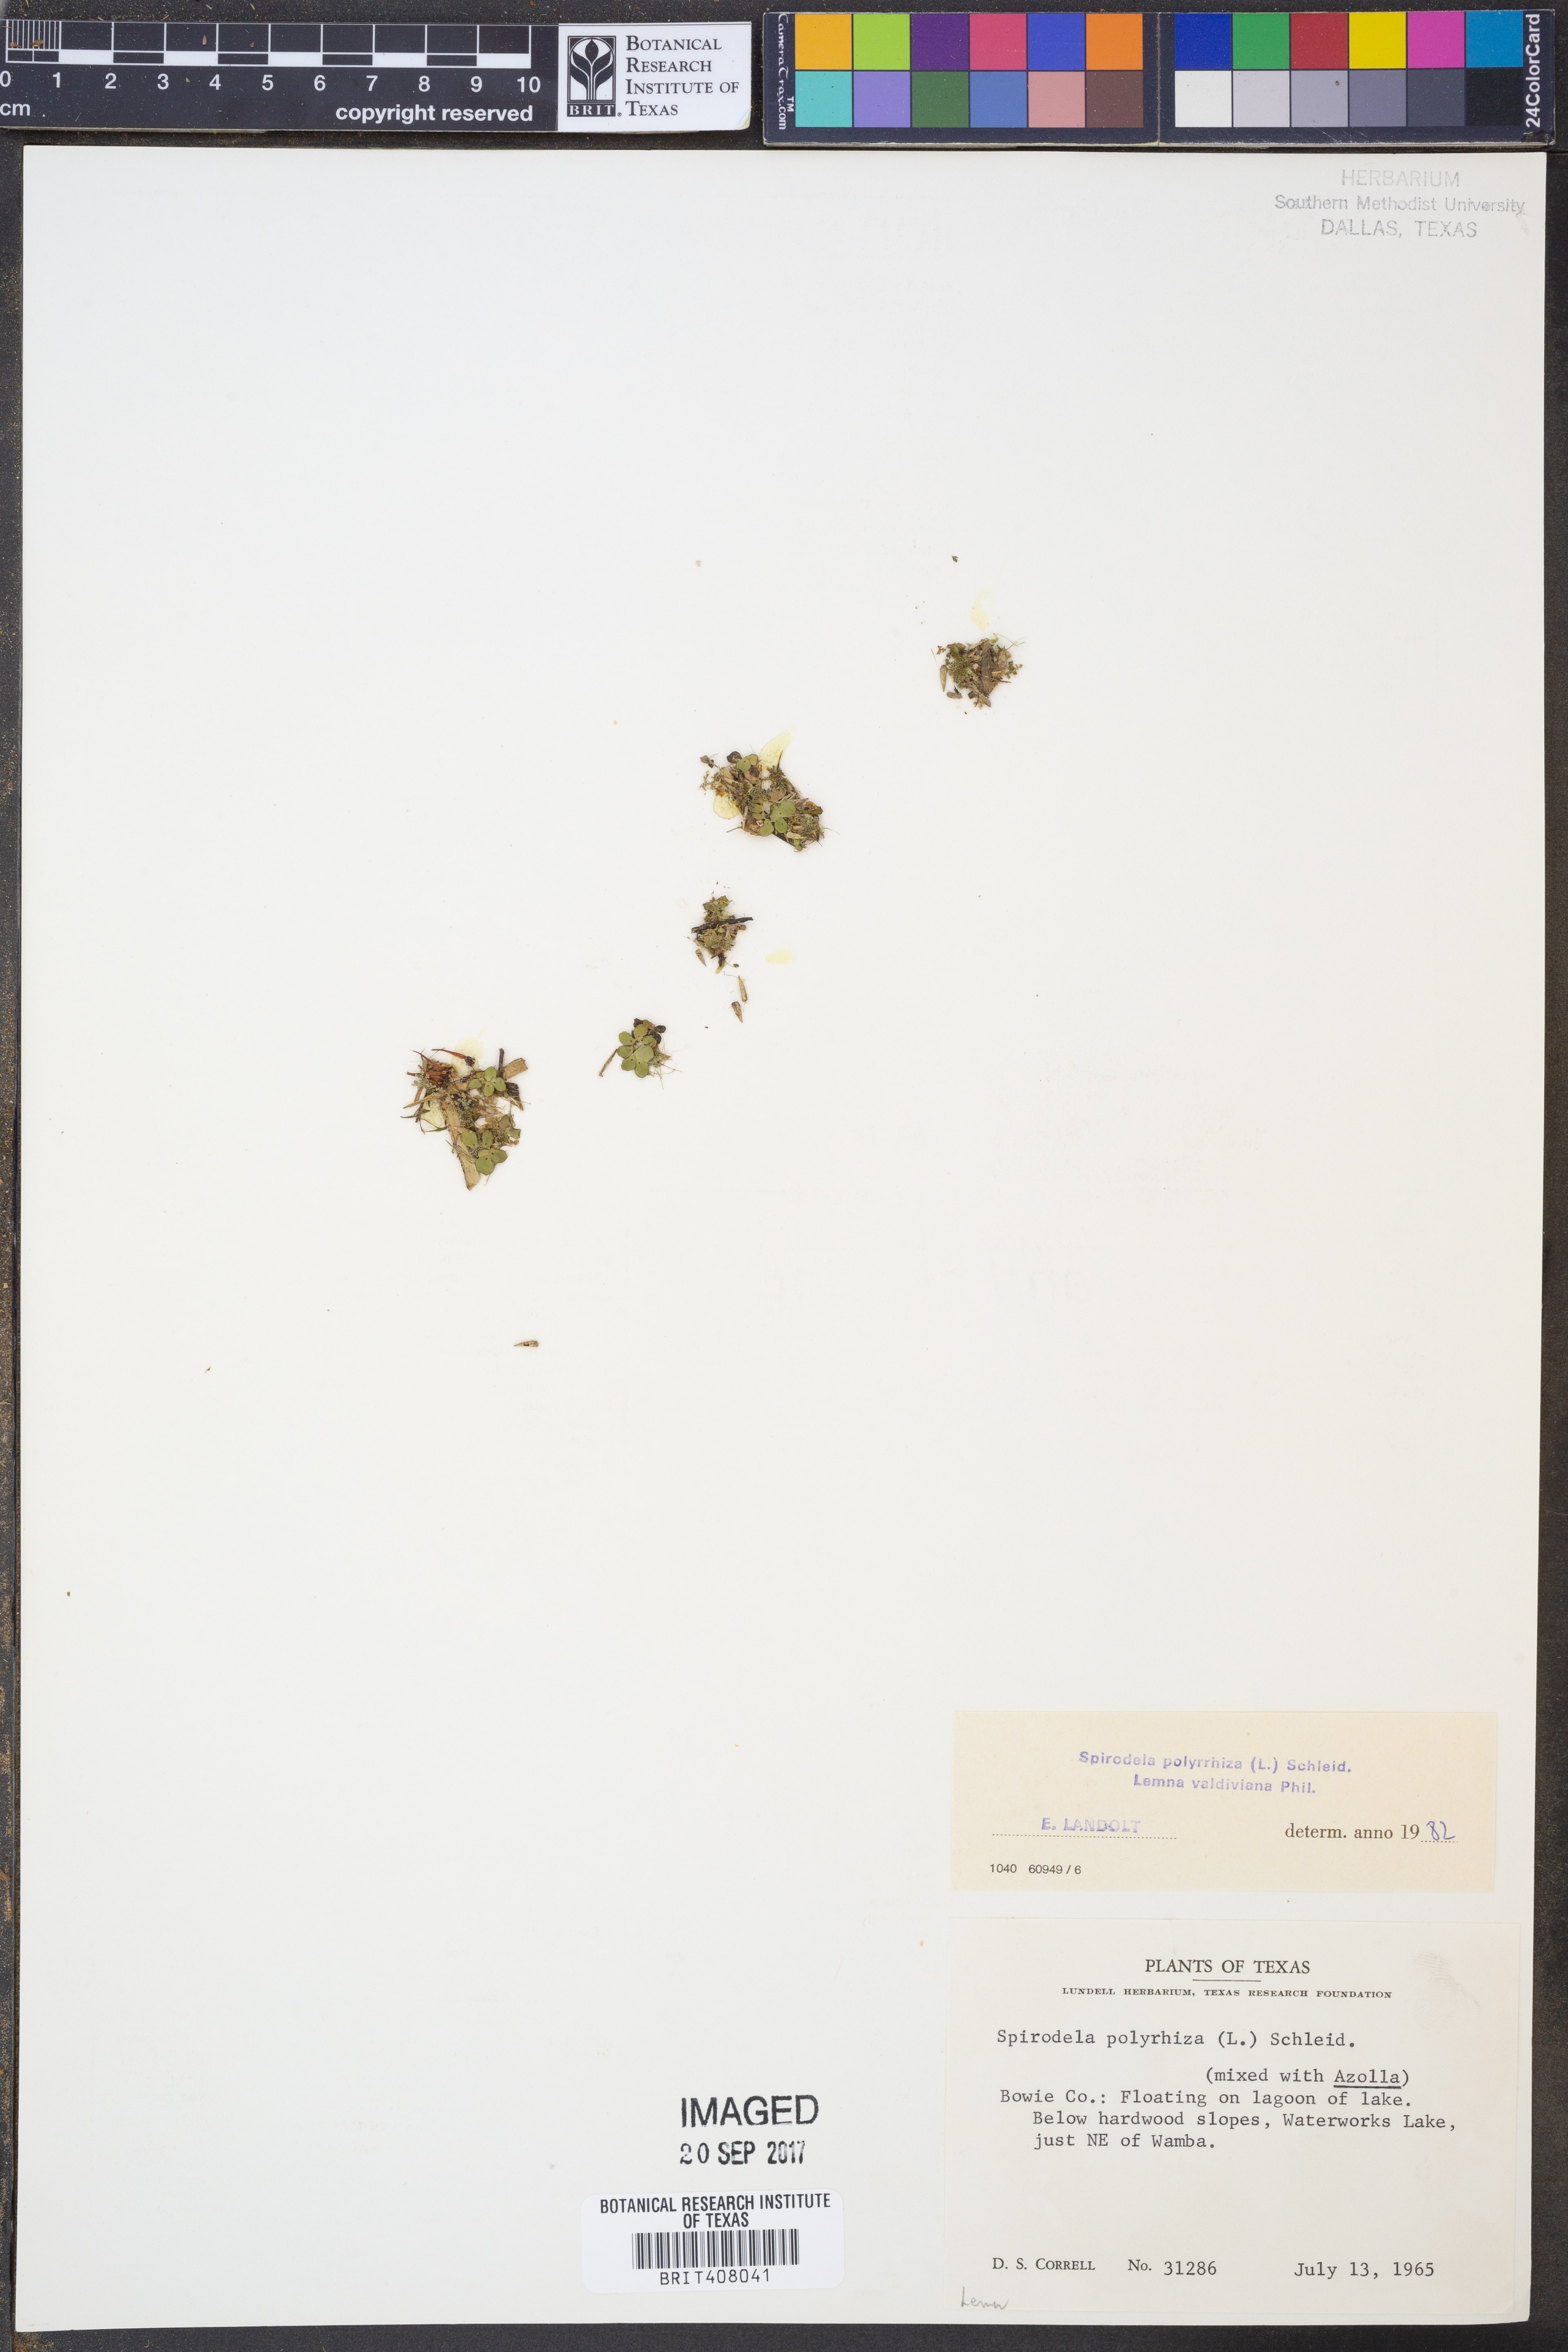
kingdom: Plantae
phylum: Tracheophyta
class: Liliopsida
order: Alismatales
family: Araceae
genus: Spirodela
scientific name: Spirodela polyrhiza
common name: Great duckweed
